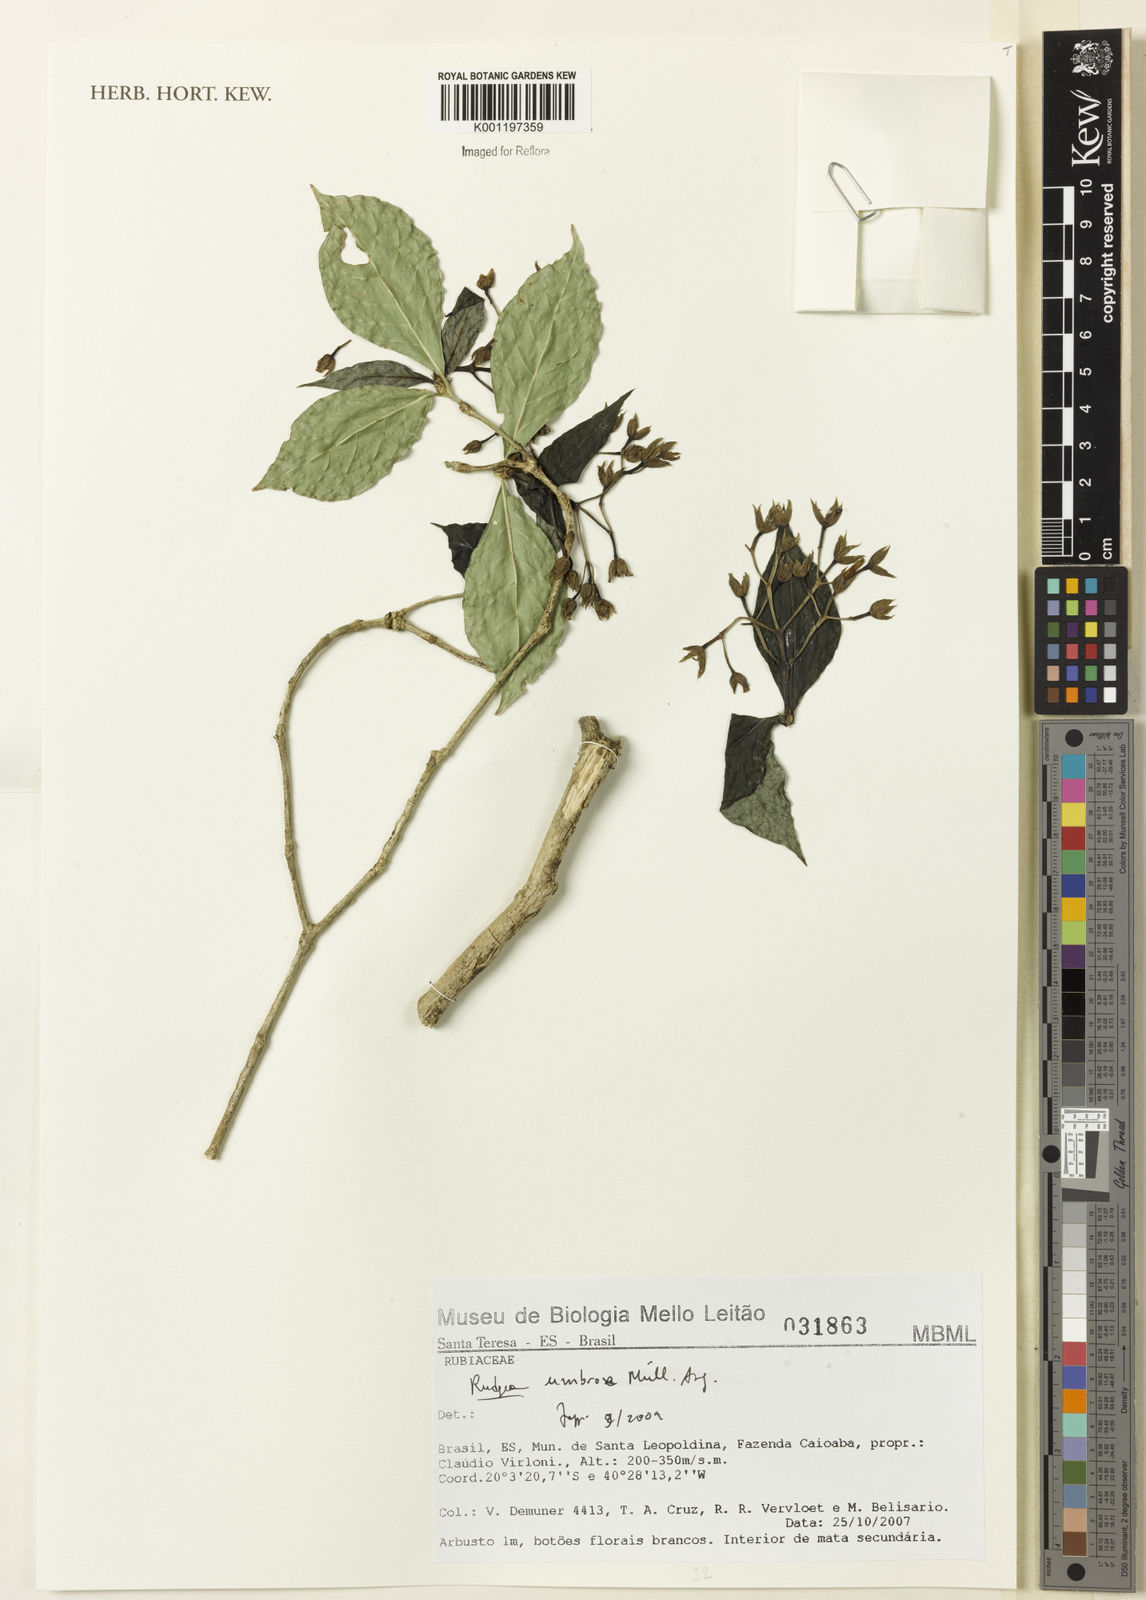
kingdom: Plantae
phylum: Tracheophyta
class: Magnoliopsida
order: Gentianales
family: Rubiaceae
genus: Psychotria
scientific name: Psychotria borjensis
